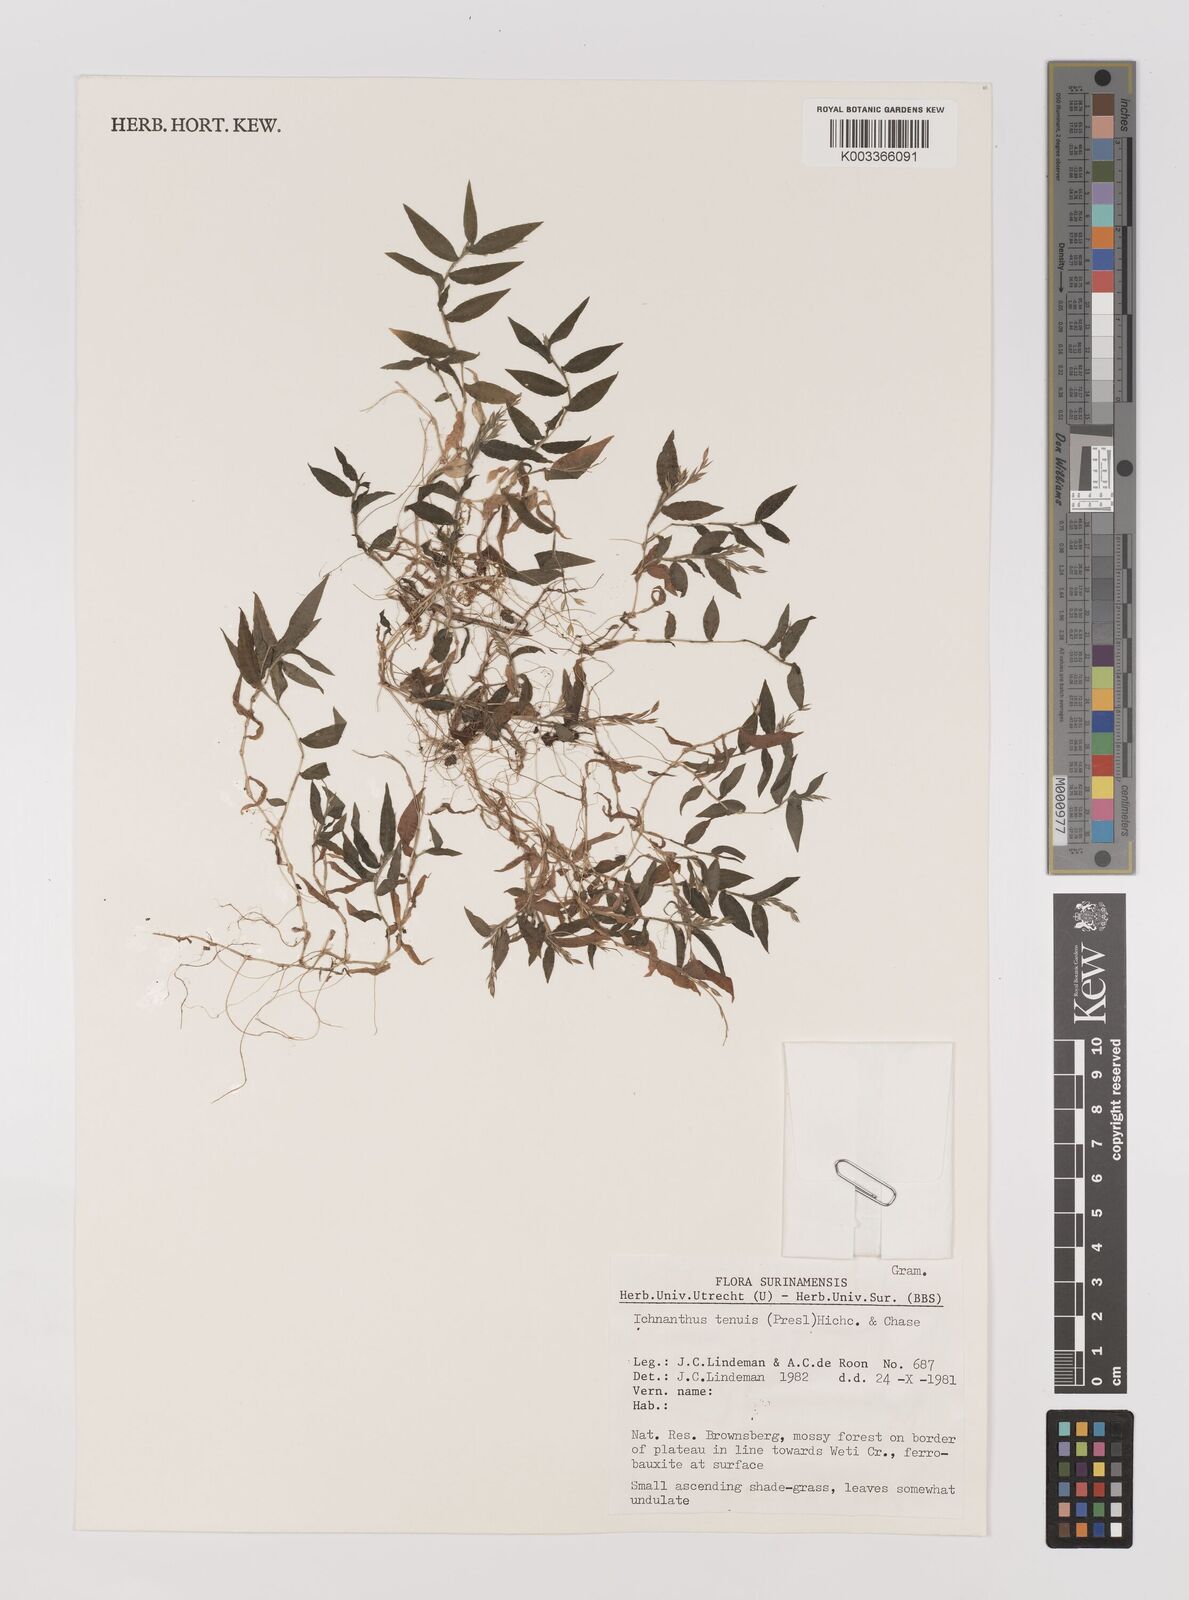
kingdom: Plantae
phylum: Tracheophyta
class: Liliopsida
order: Poales
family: Poaceae
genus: Ichnanthus
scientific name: Ichnanthus tenuis
